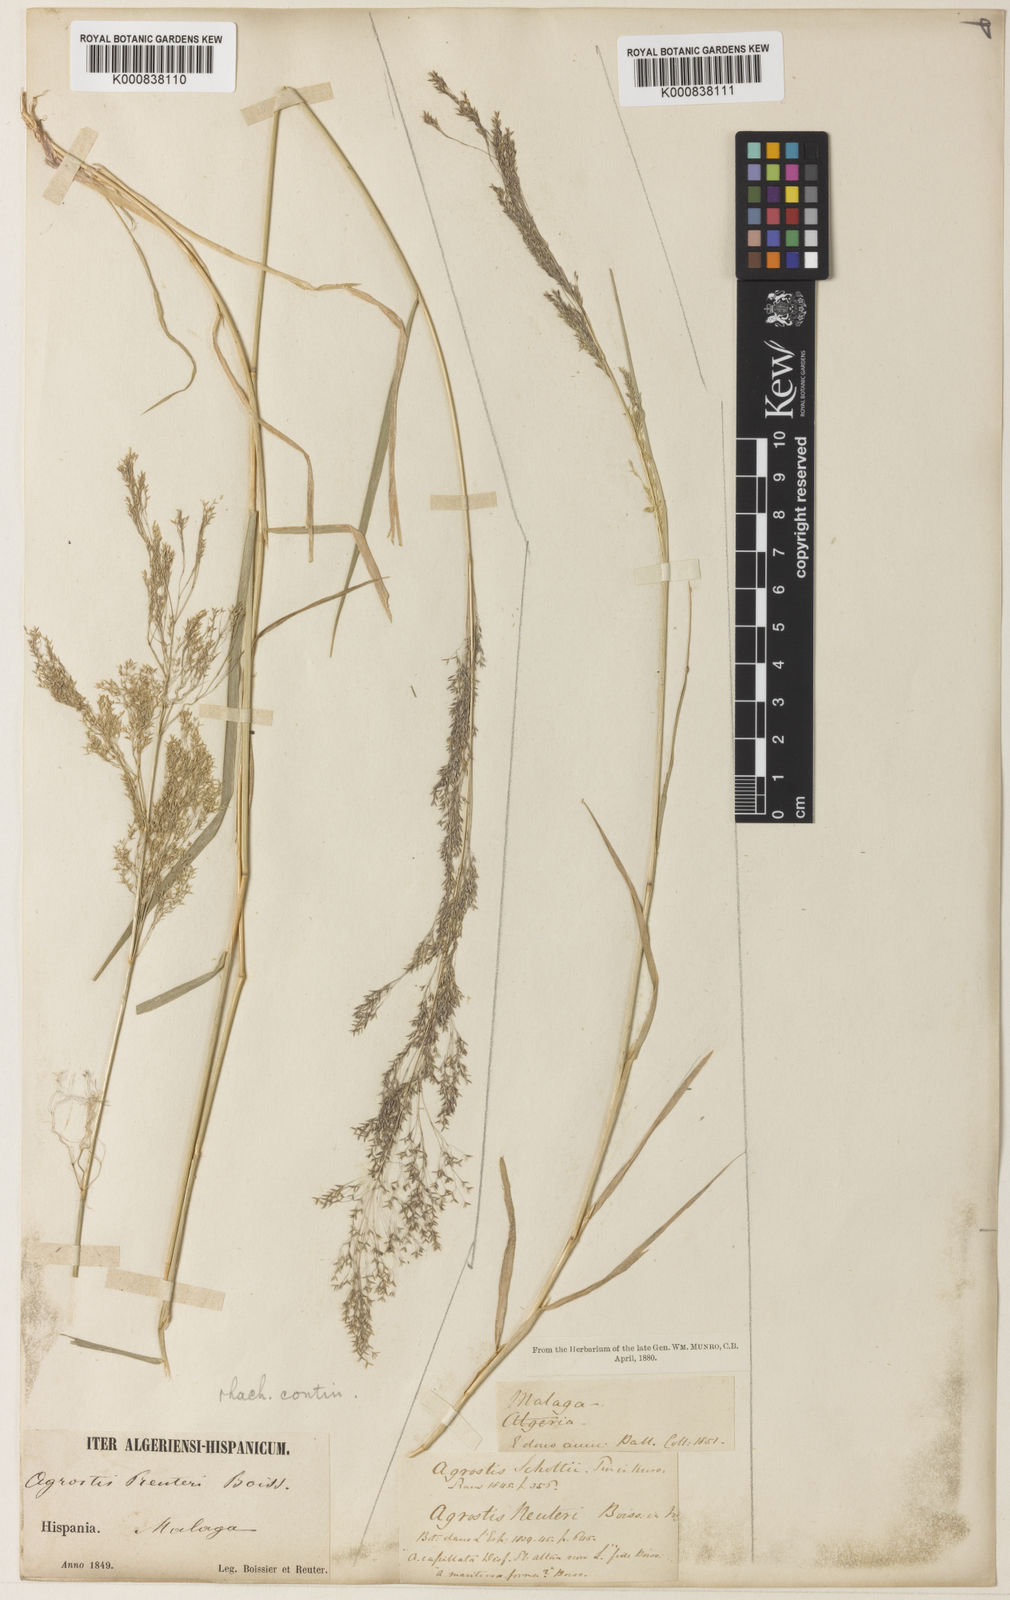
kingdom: Plantae
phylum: Tracheophyta
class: Liliopsida
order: Poales
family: Poaceae
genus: Agrostis
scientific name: Agrostis reuteri
